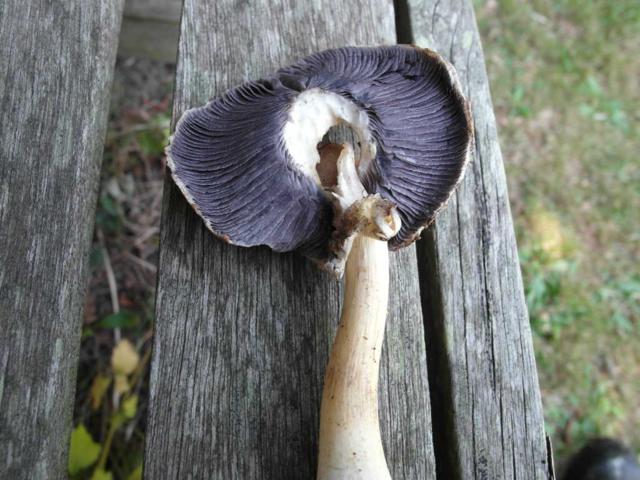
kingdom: Fungi
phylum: Basidiomycota
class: Agaricomycetes
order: Agaricales
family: Strophariaceae
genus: Stropharia
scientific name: Stropharia rugosoannulata
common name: rødbrun bredblad
